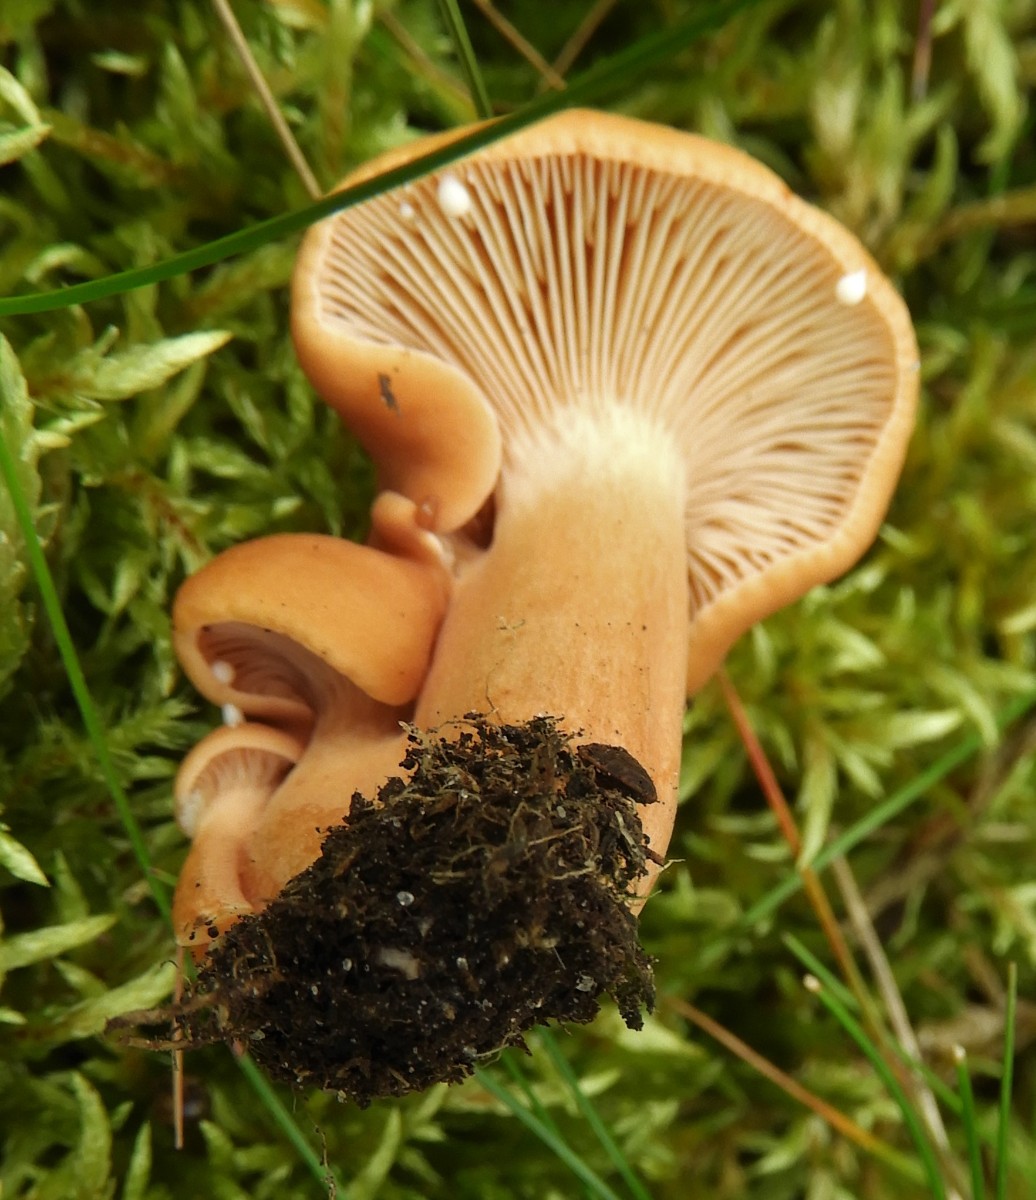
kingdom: Fungi
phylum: Basidiomycota
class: Agaricomycetes
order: Russulales
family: Russulaceae
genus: Lactarius
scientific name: Lactarius subdulcis
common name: sødlig mælkehat
